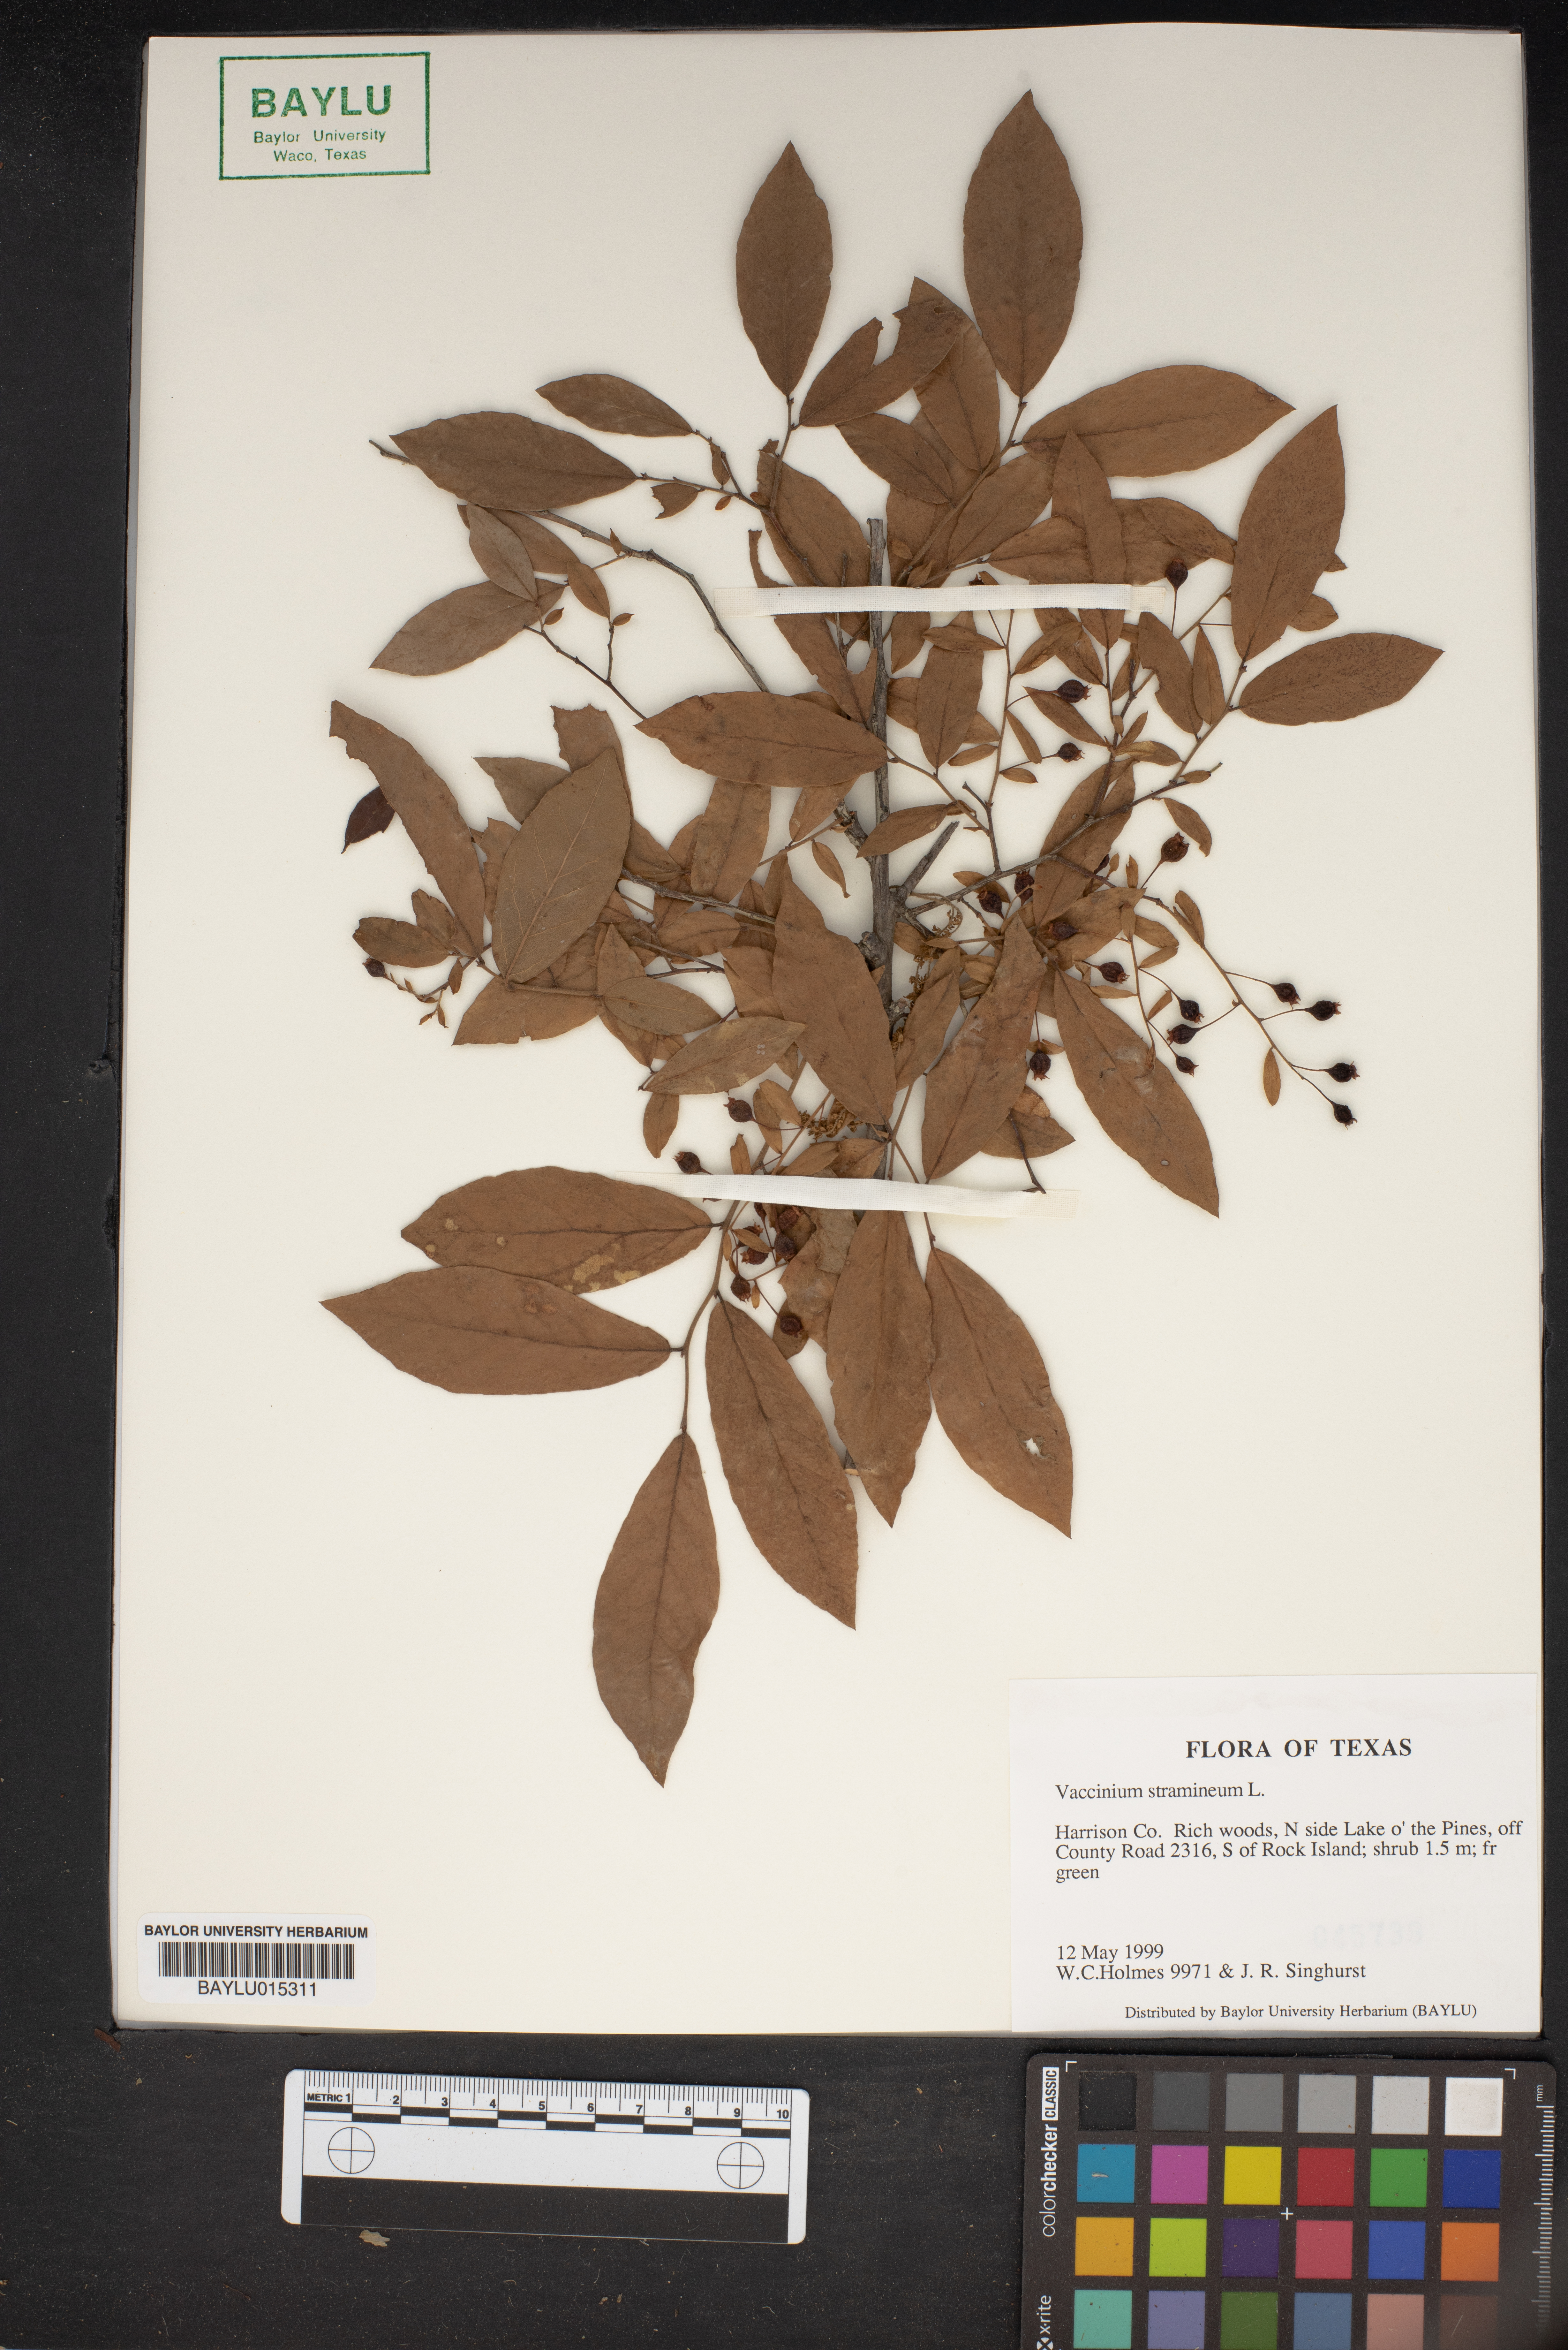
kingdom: Plantae
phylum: Tracheophyta
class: Magnoliopsida
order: Ericales
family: Ericaceae
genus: Vaccinium
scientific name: Vaccinium stramineum
